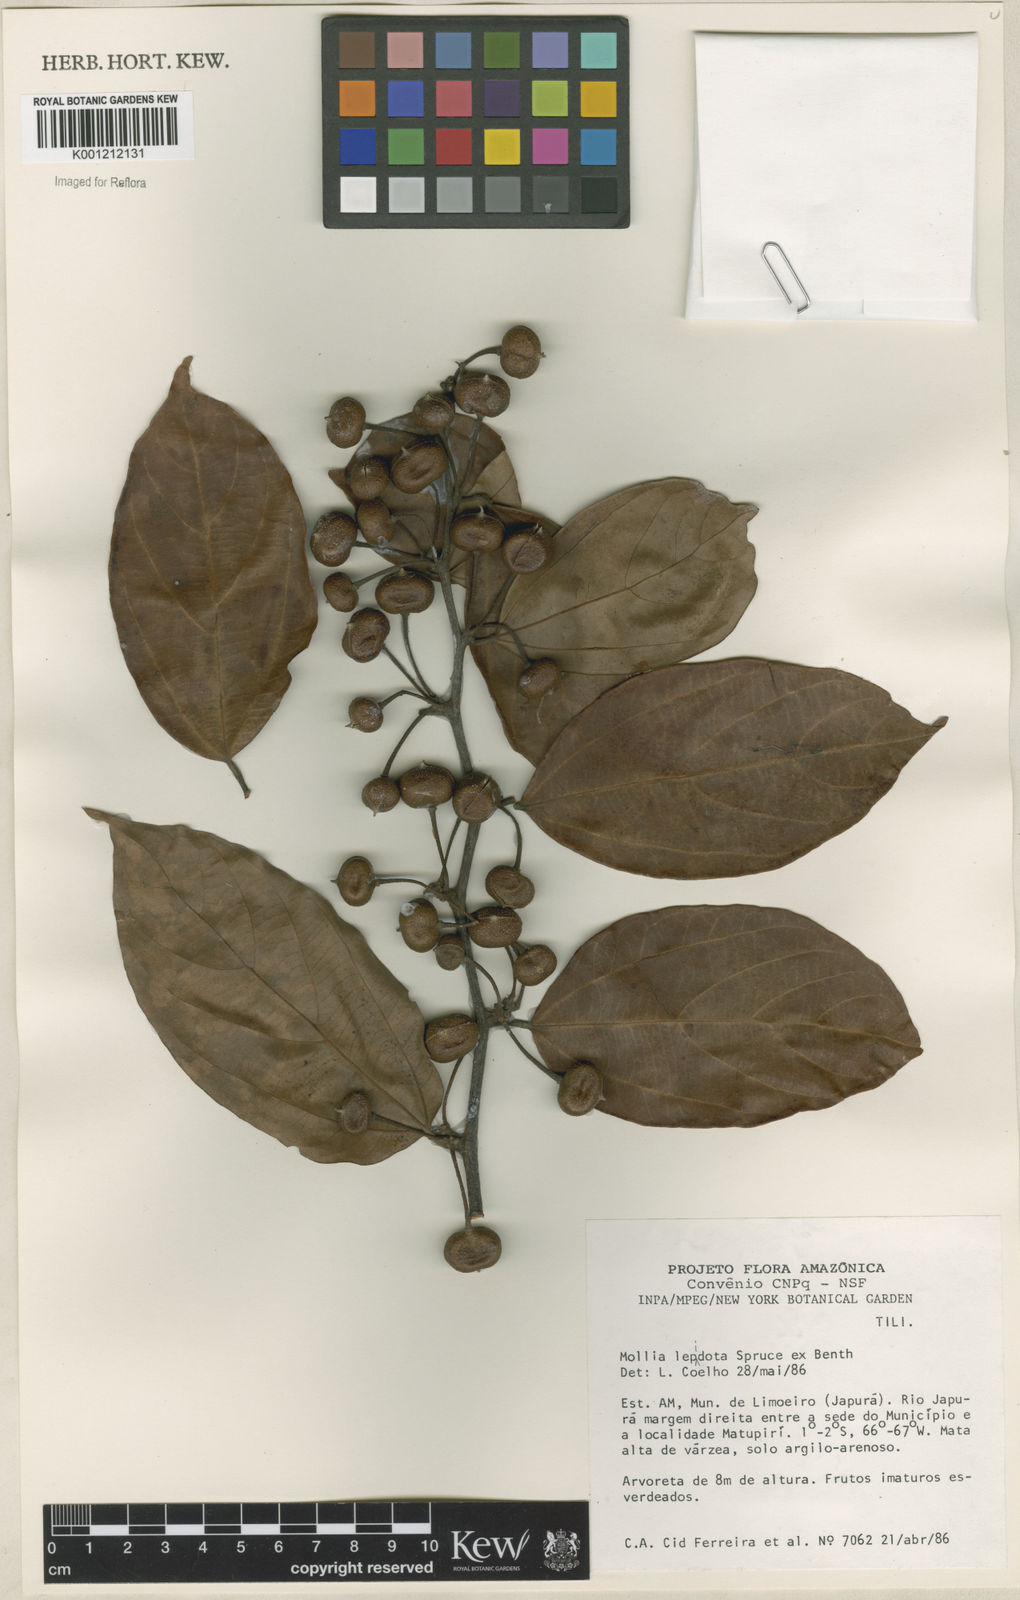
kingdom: Plantae
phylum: Tracheophyta
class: Magnoliopsida
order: Malvales
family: Malvaceae
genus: Mollia
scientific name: Mollia lepidota
